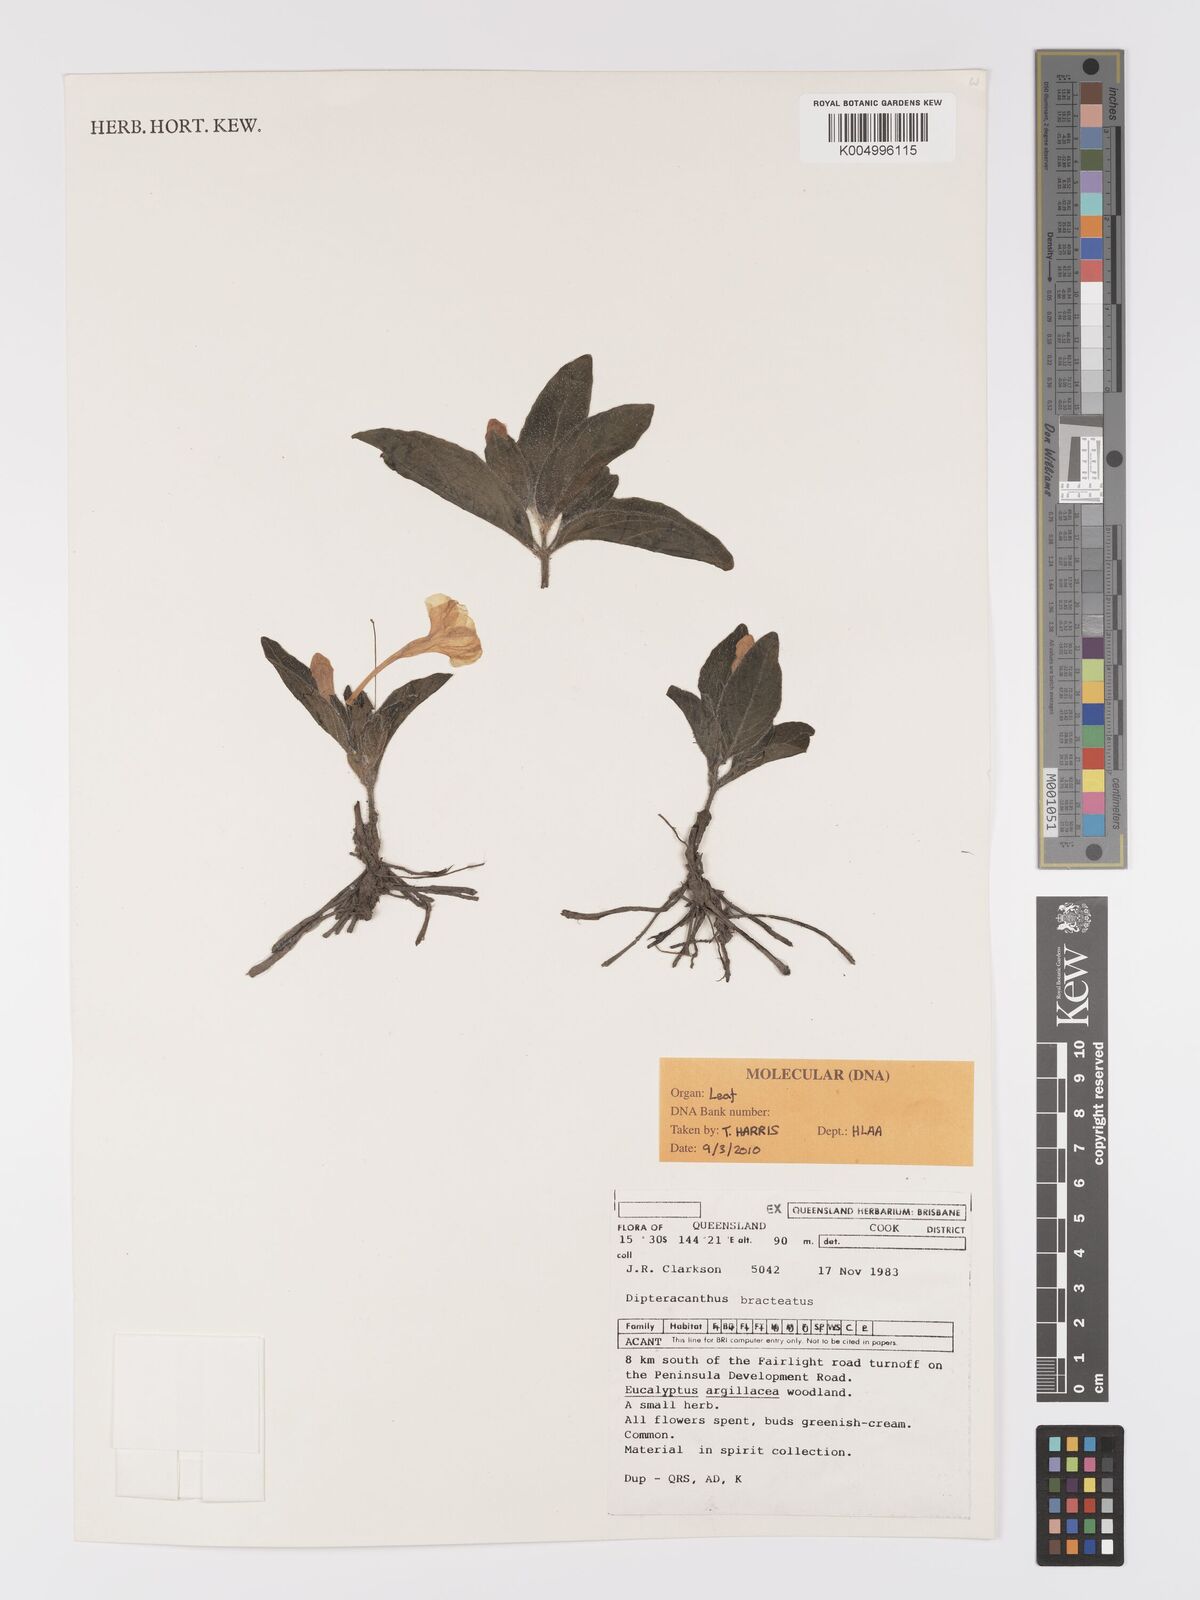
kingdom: Plantae
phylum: Tracheophyta
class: Magnoliopsida
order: Lamiales
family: Acanthaceae
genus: Ruellia
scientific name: Ruellia
